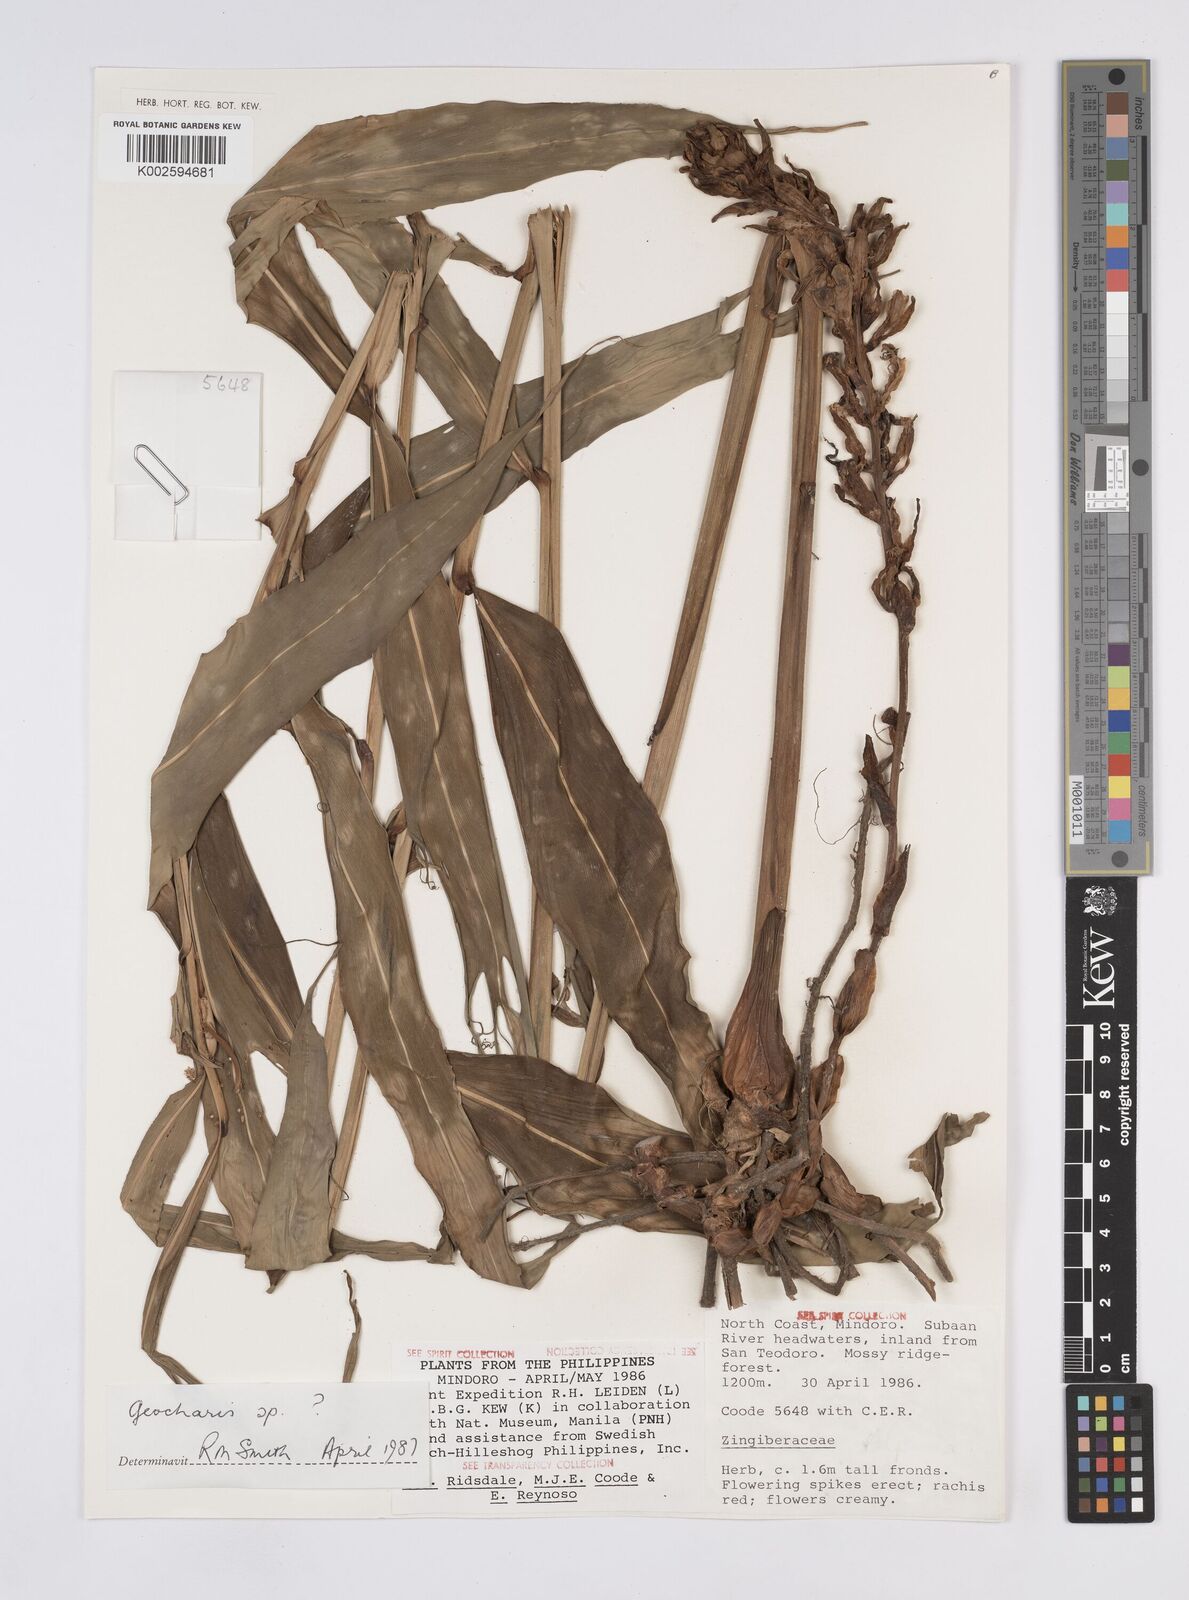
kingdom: Plantae
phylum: Tracheophyta
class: Liliopsida
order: Zingiberales
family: Zingiberaceae
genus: Geocharis
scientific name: Geocharis
